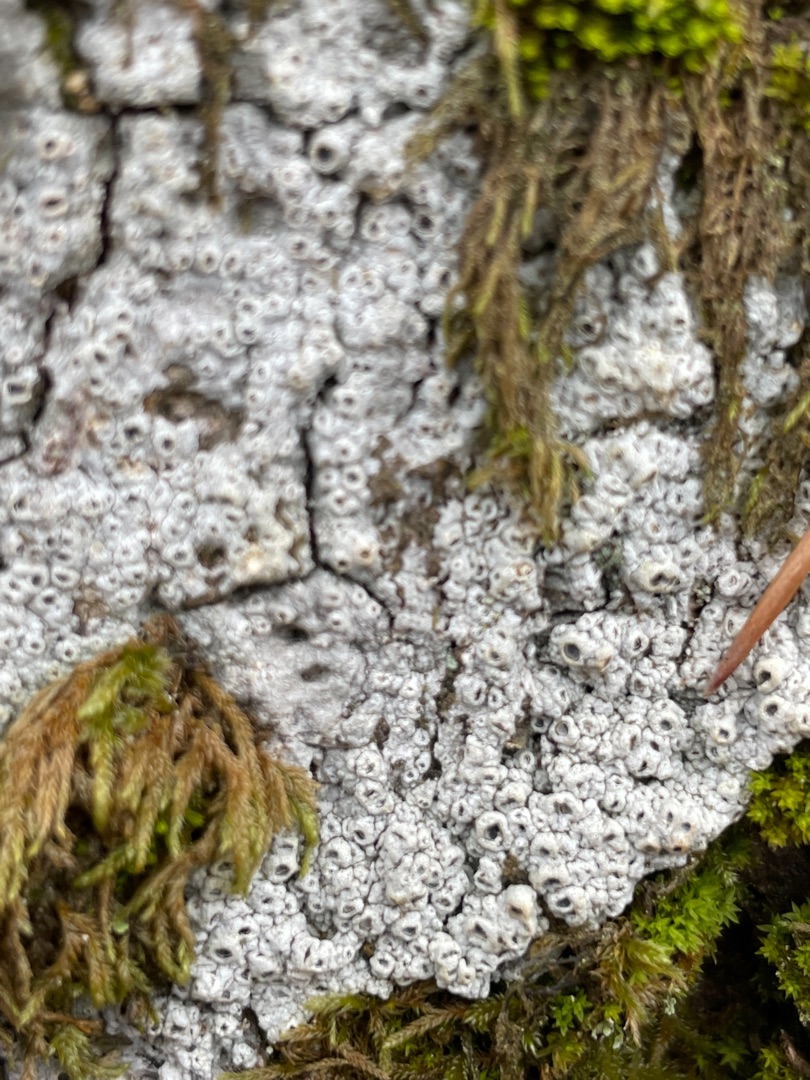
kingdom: Fungi
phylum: Ascomycota
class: Lecanoromycetes
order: Ostropales
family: Graphidaceae
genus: Thelotrema
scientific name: Thelotrema lepadinum
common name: Almindelig slørkantlav
